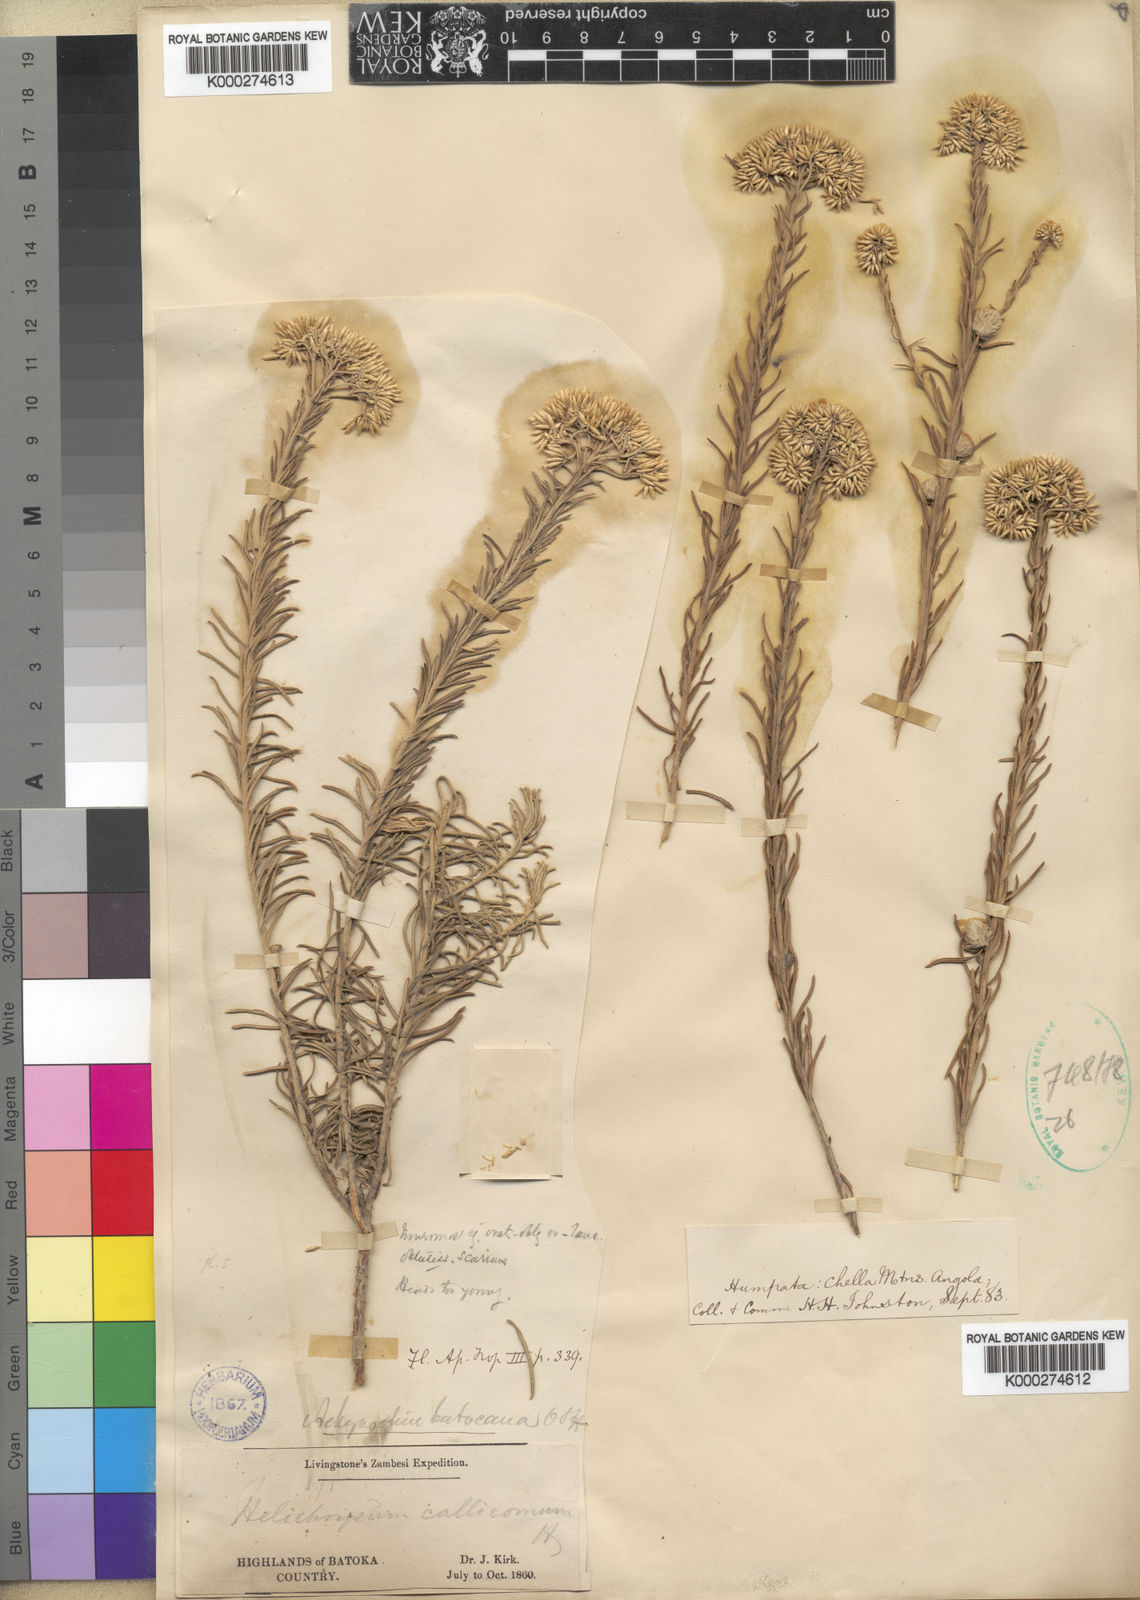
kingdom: Plantae
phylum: Tracheophyta
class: Magnoliopsida
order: Asterales
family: Asteraceae
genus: Helichrysum
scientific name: Helichrysum kraussii
